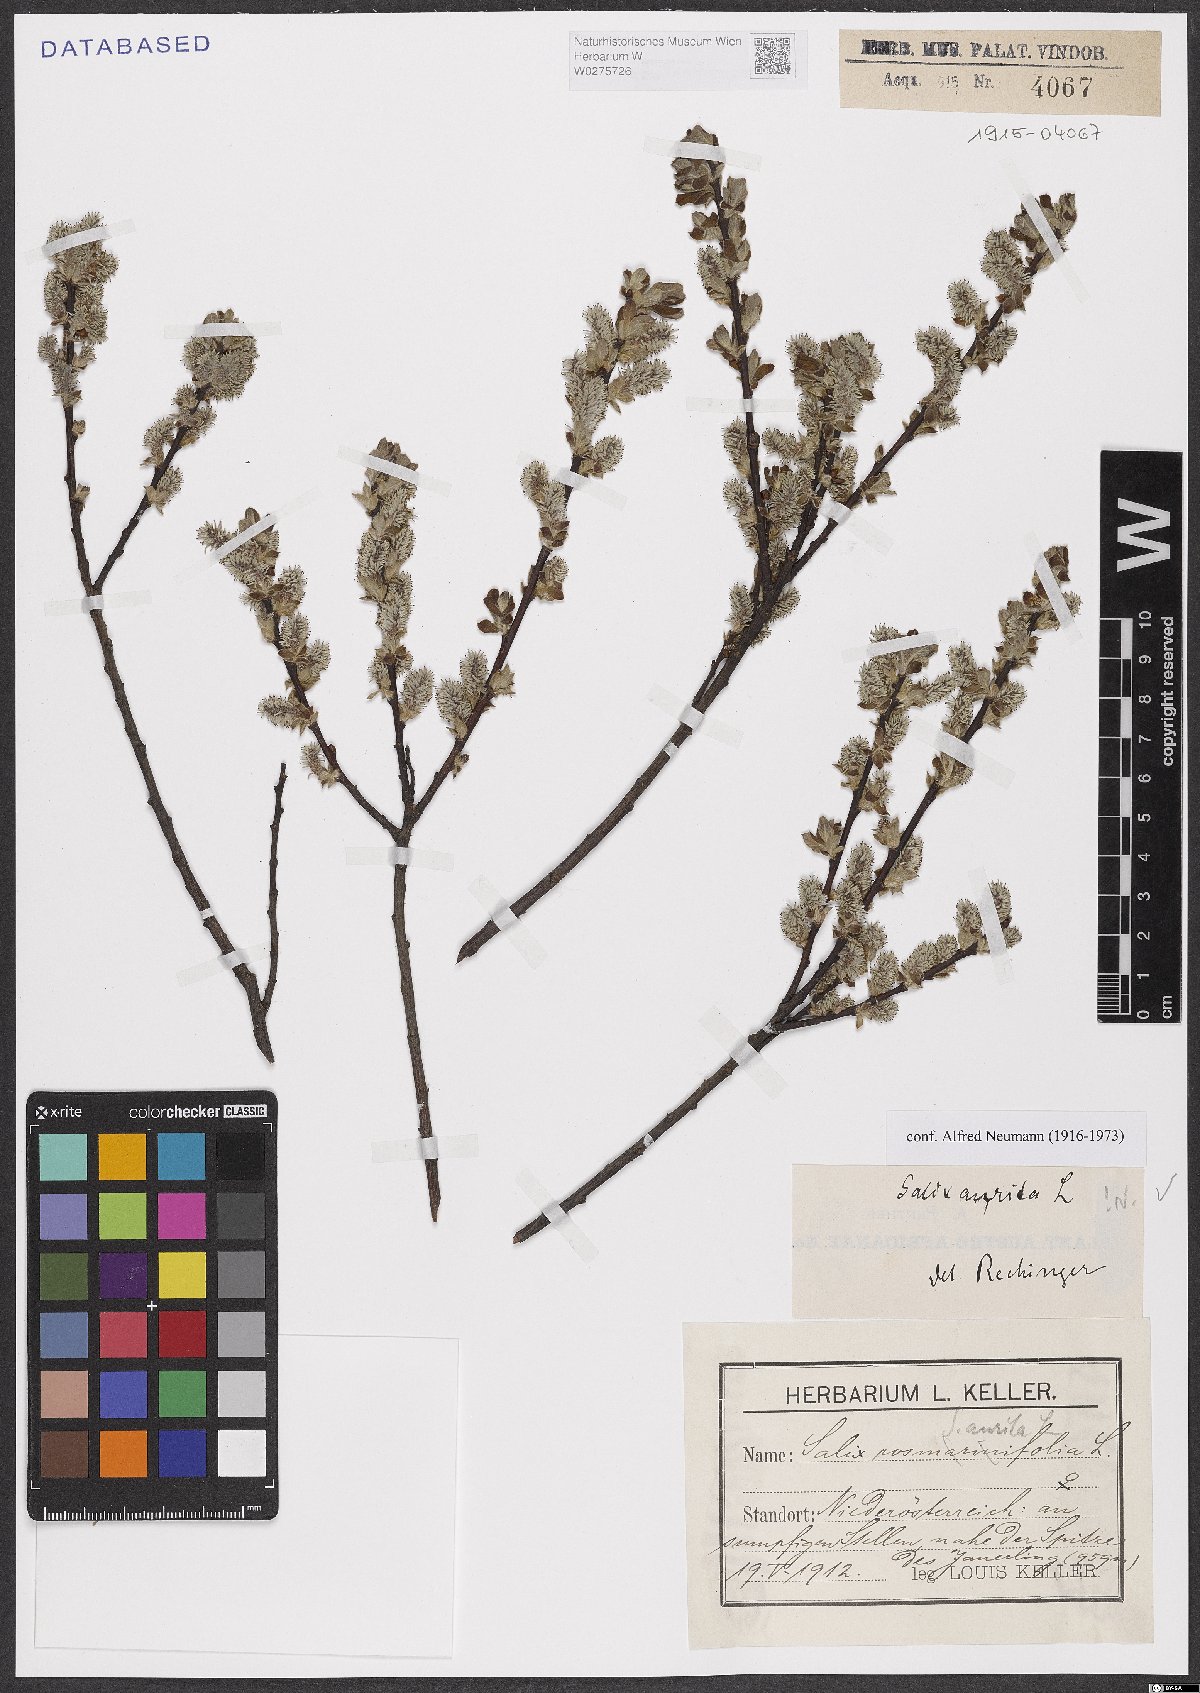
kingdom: Plantae
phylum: Tracheophyta
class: Magnoliopsida
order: Malpighiales
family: Salicaceae
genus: Salix
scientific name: Salix aurita
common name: Eared willow
